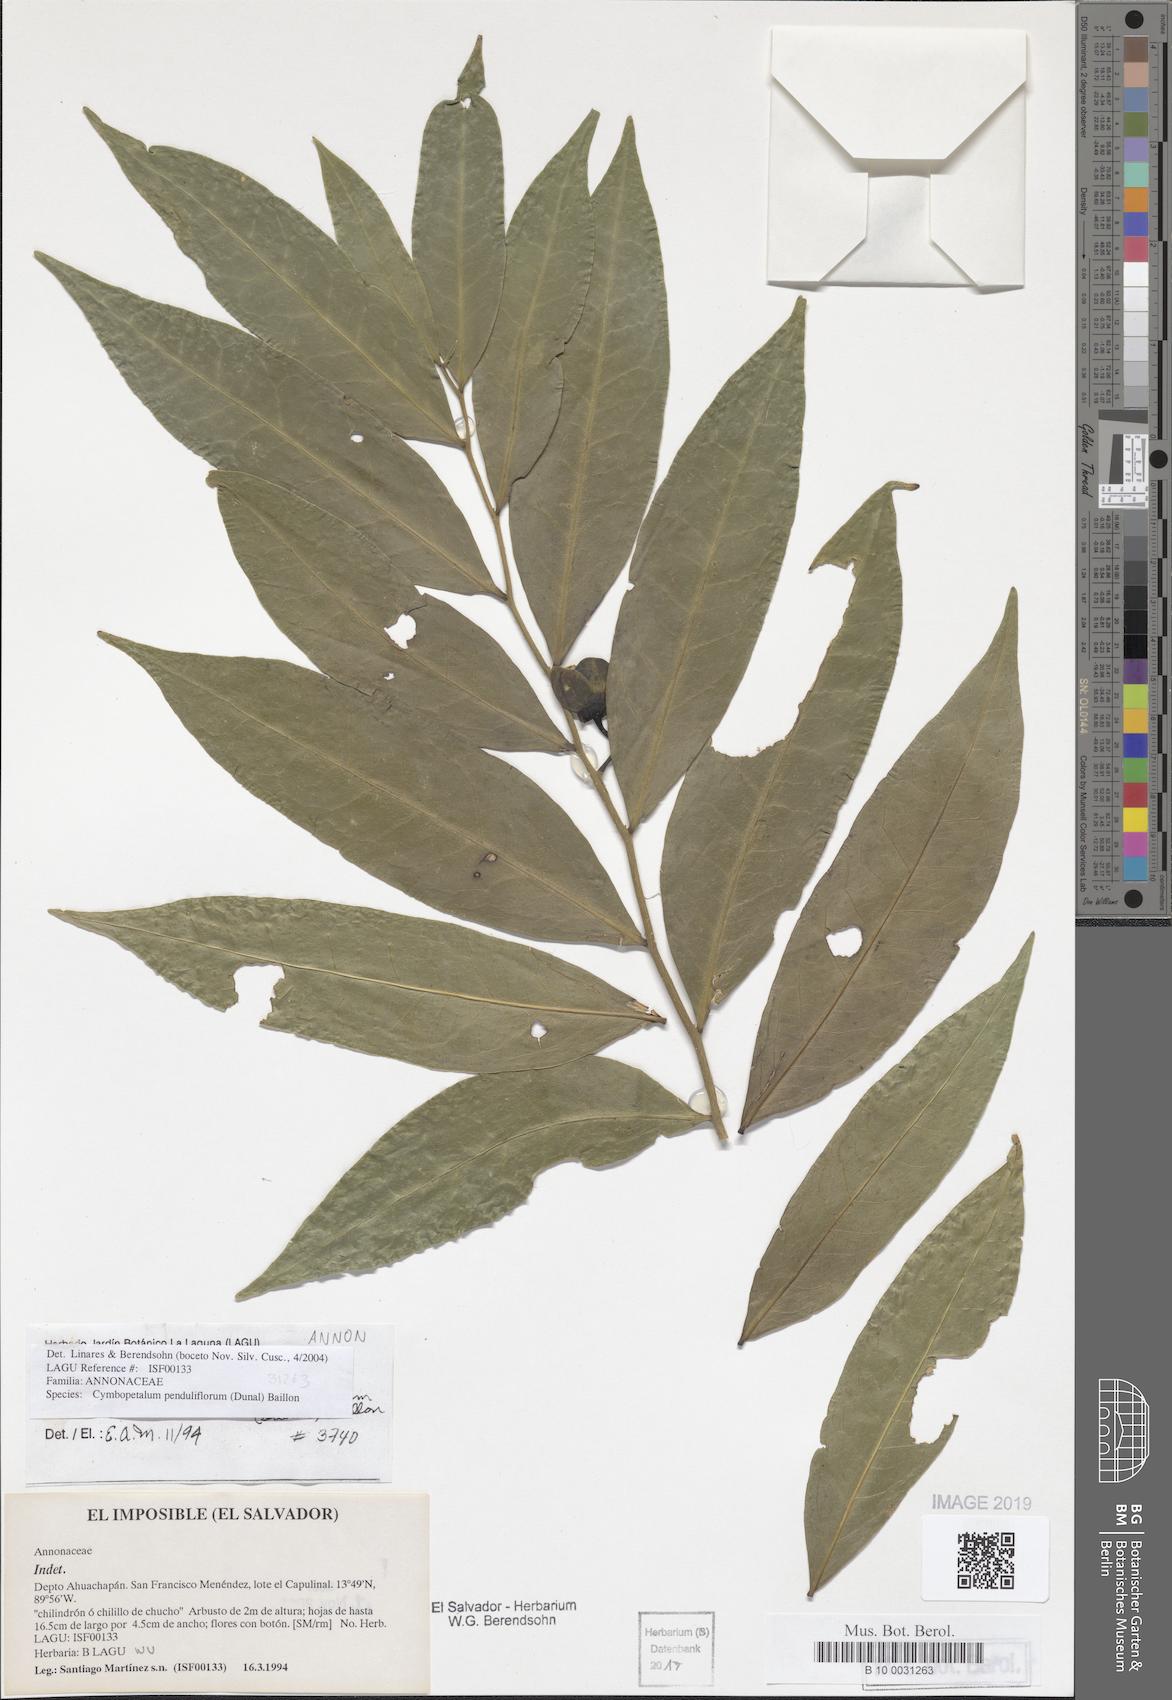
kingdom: Plantae
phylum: Tracheophyta
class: Magnoliopsida
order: Magnoliales
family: Annonaceae
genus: Cymbopetalum
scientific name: Cymbopetalum penduliflorum
